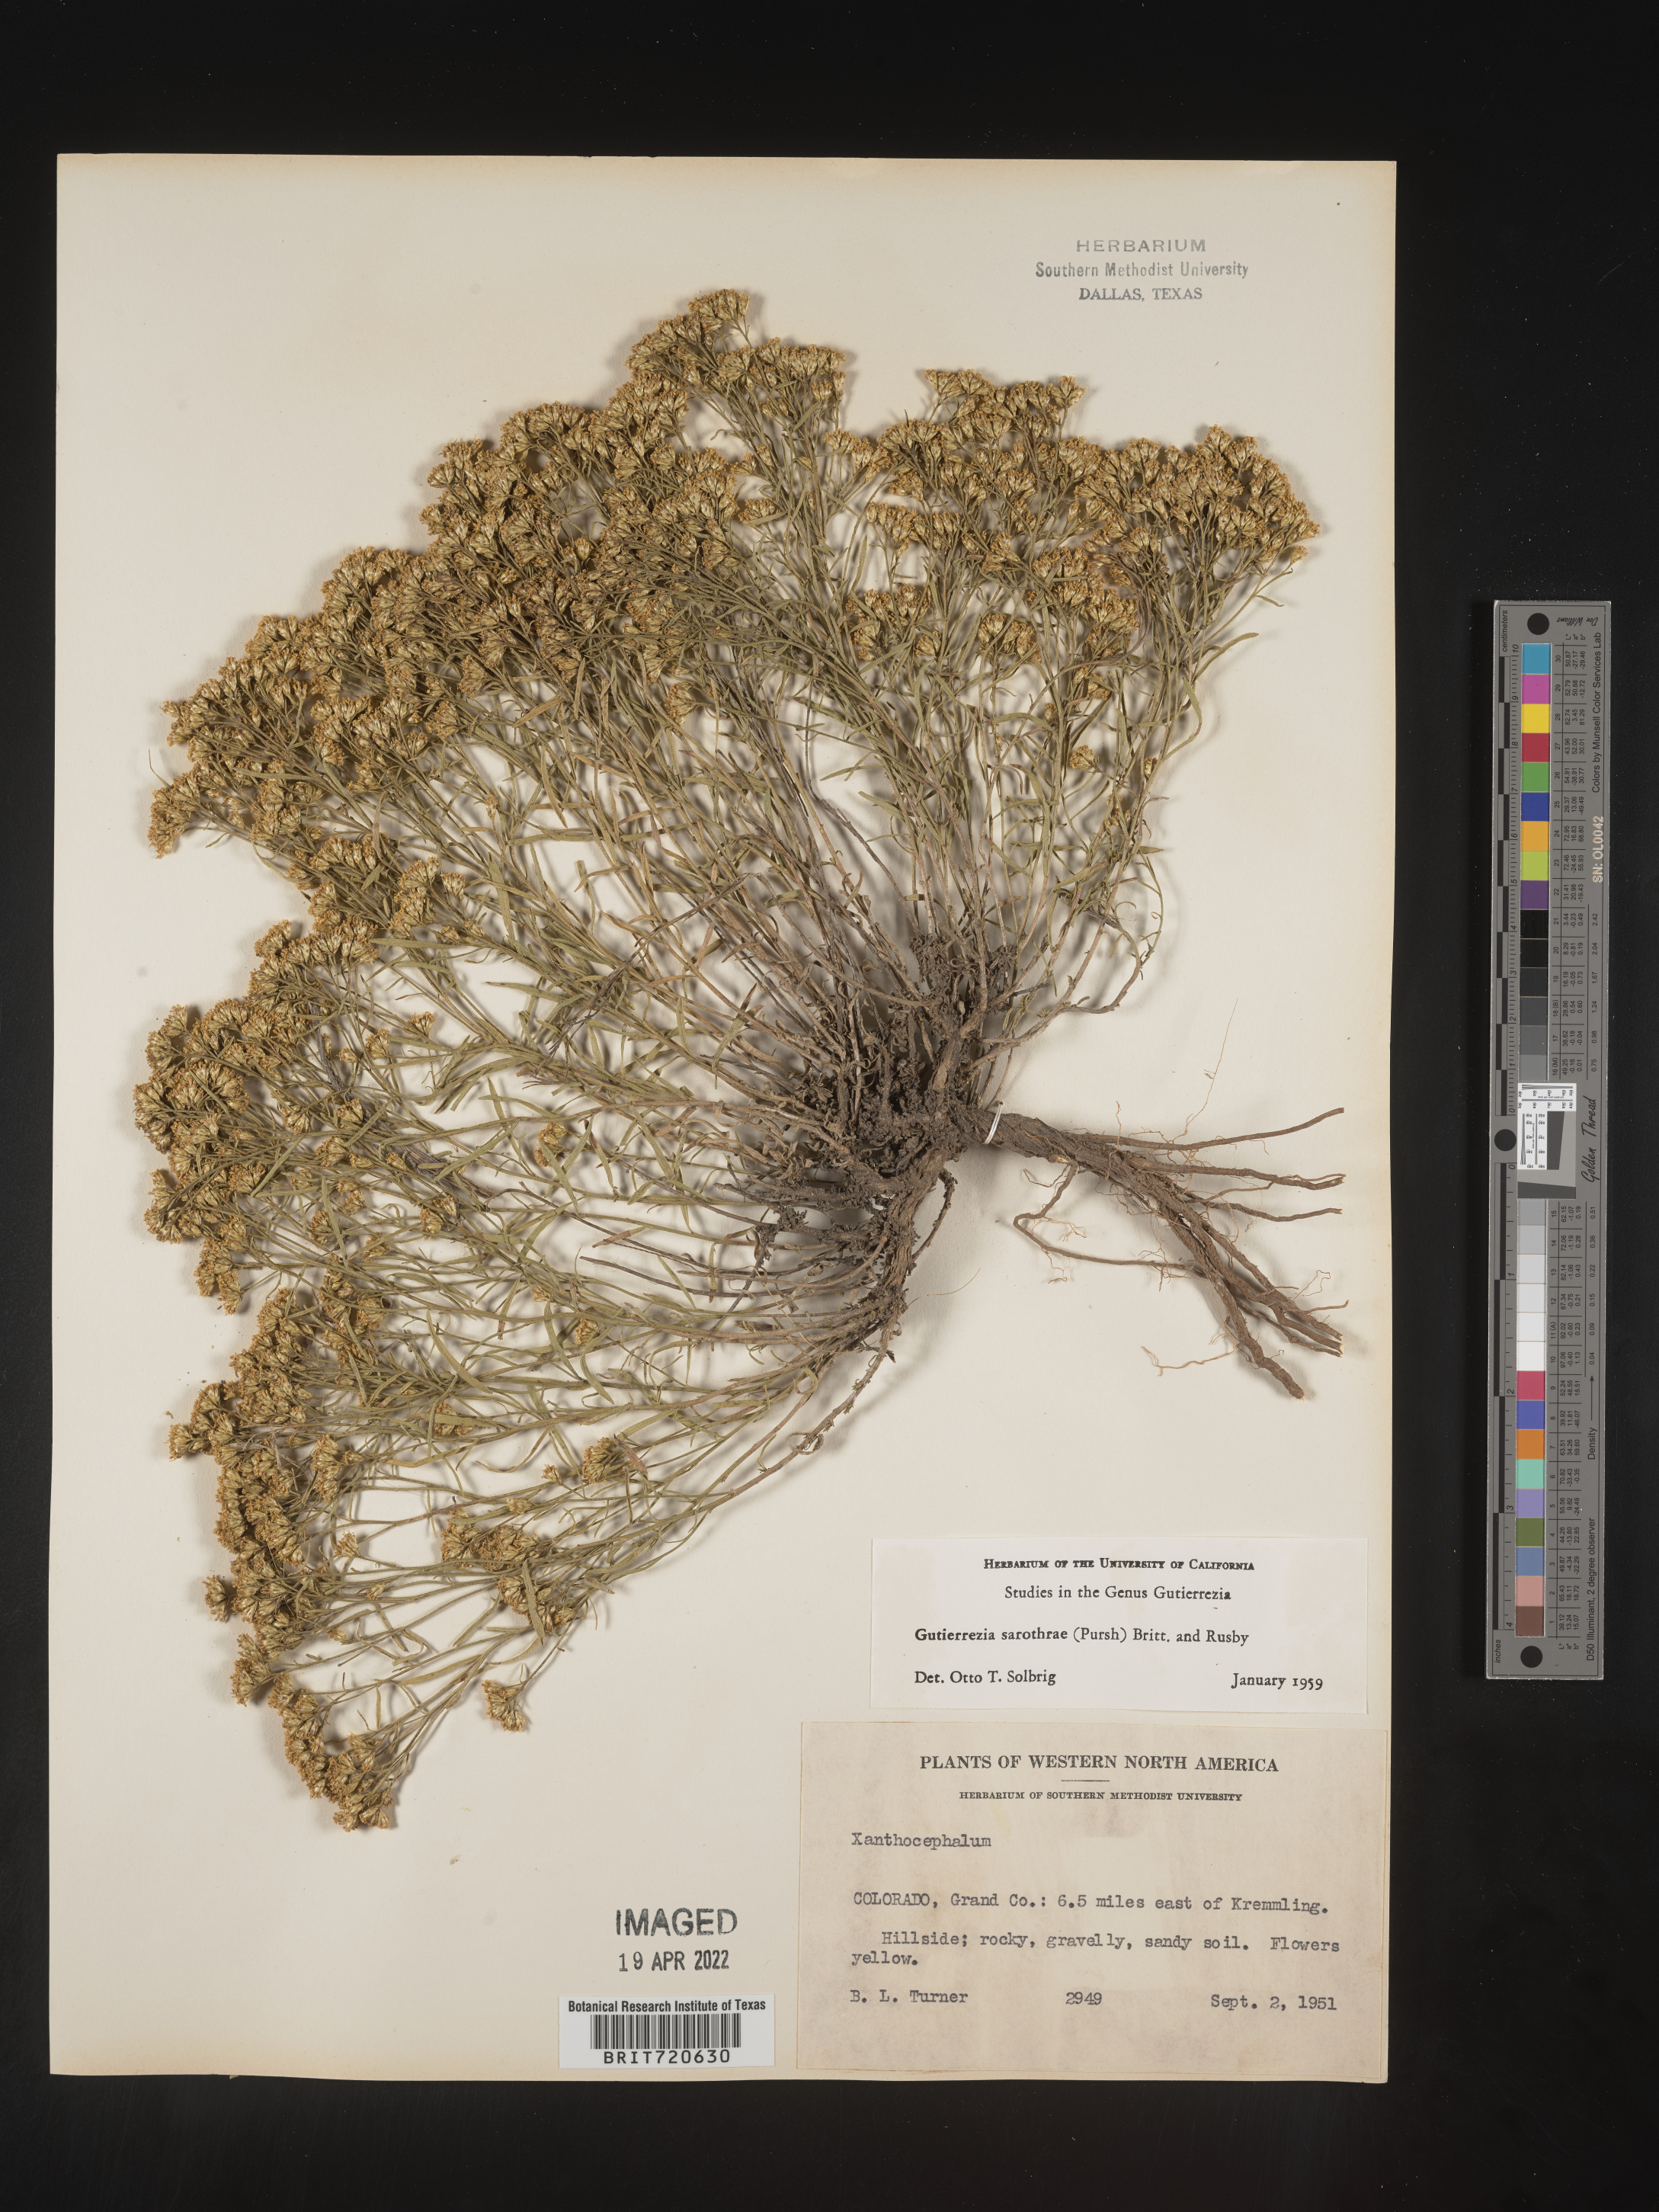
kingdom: Plantae
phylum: Tracheophyta
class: Magnoliopsida
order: Asterales
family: Asteraceae
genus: Gutierrezia
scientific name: Gutierrezia sarothrae
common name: Broom snakeweed
